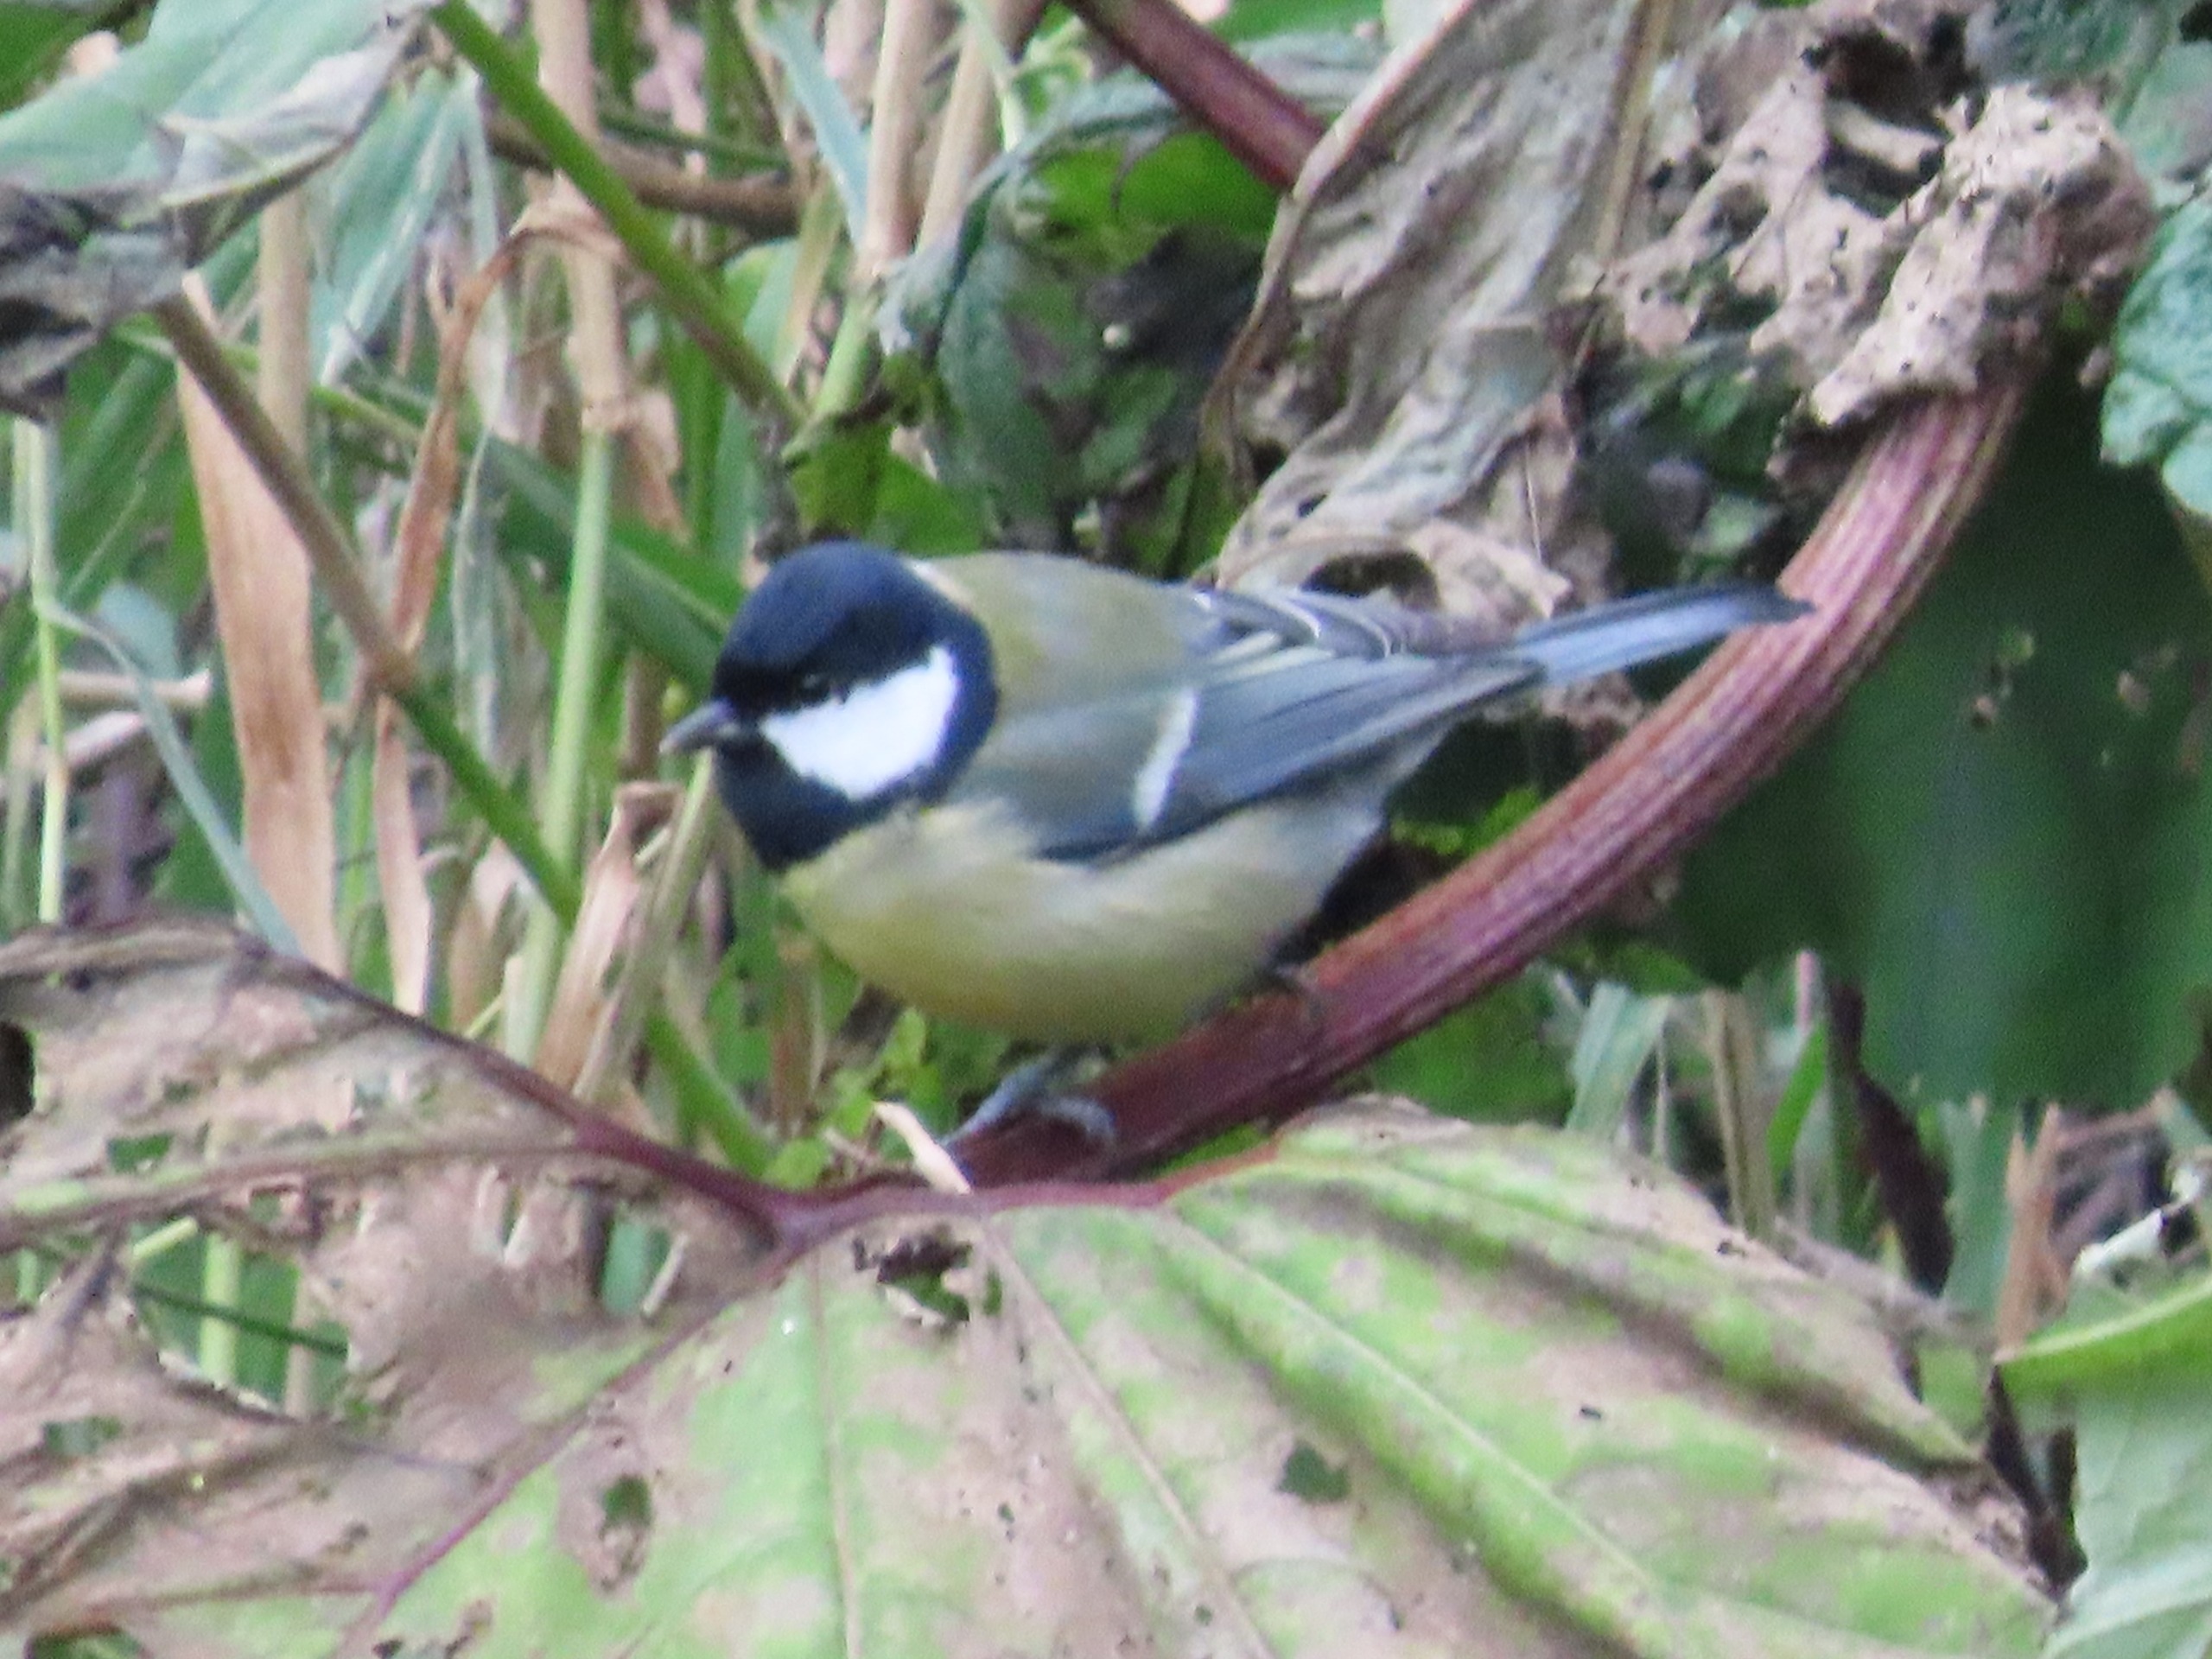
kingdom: Animalia
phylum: Chordata
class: Aves
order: Passeriformes
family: Paridae
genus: Parus
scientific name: Parus major
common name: Musvit
